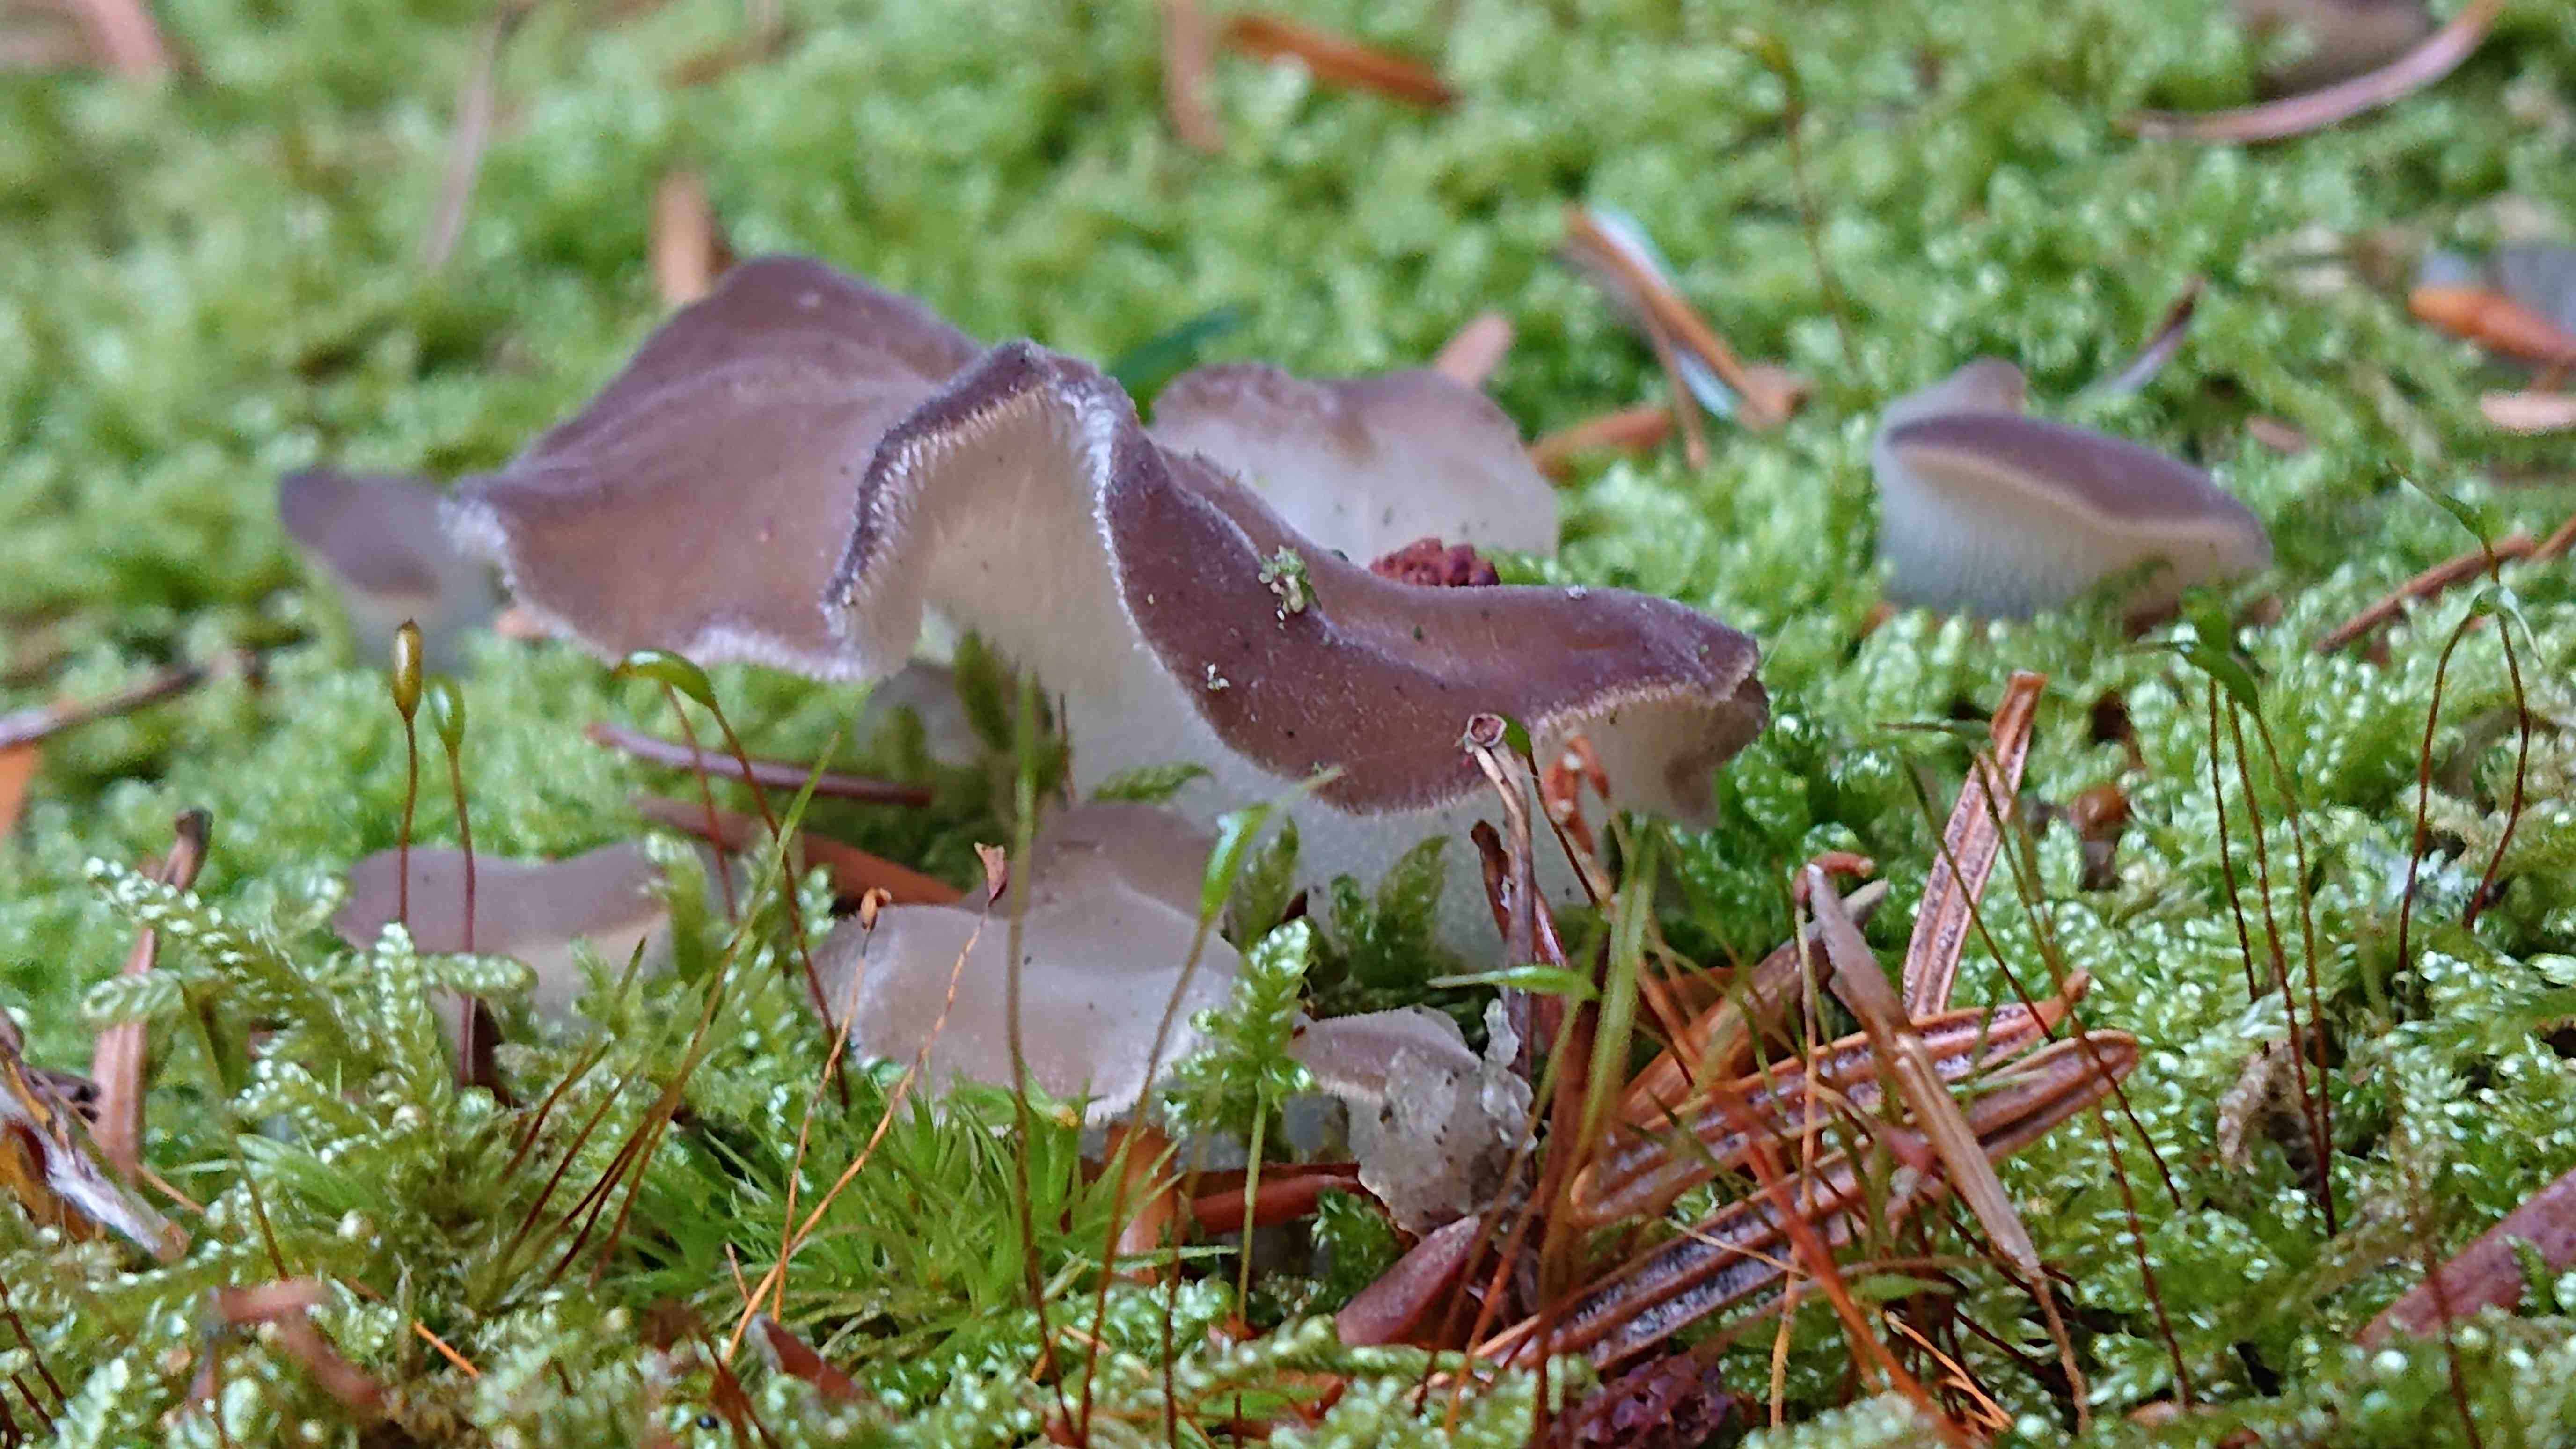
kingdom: Fungi
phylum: Basidiomycota
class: Agaricomycetes
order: Auriculariales
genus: Pseudohydnum
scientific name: Pseudohydnum gelatinosum
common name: bævretand
